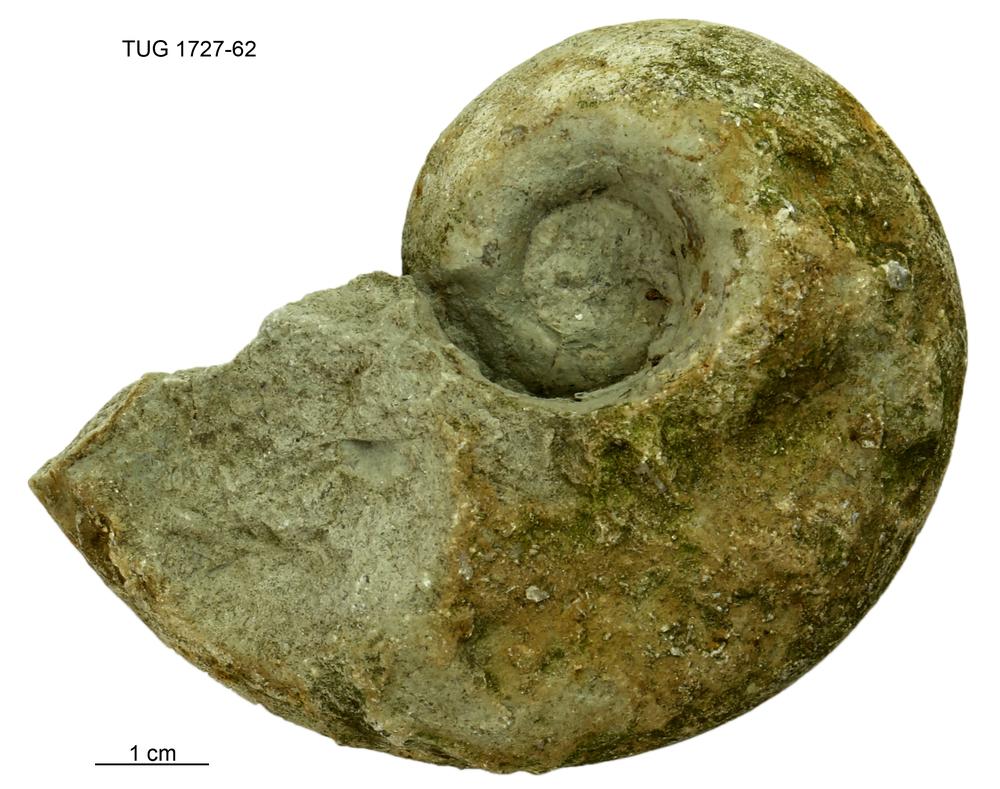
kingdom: Animalia
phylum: Mollusca
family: Macluritidae
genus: Maclurites
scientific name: Maclurites Maclurea neritoides
